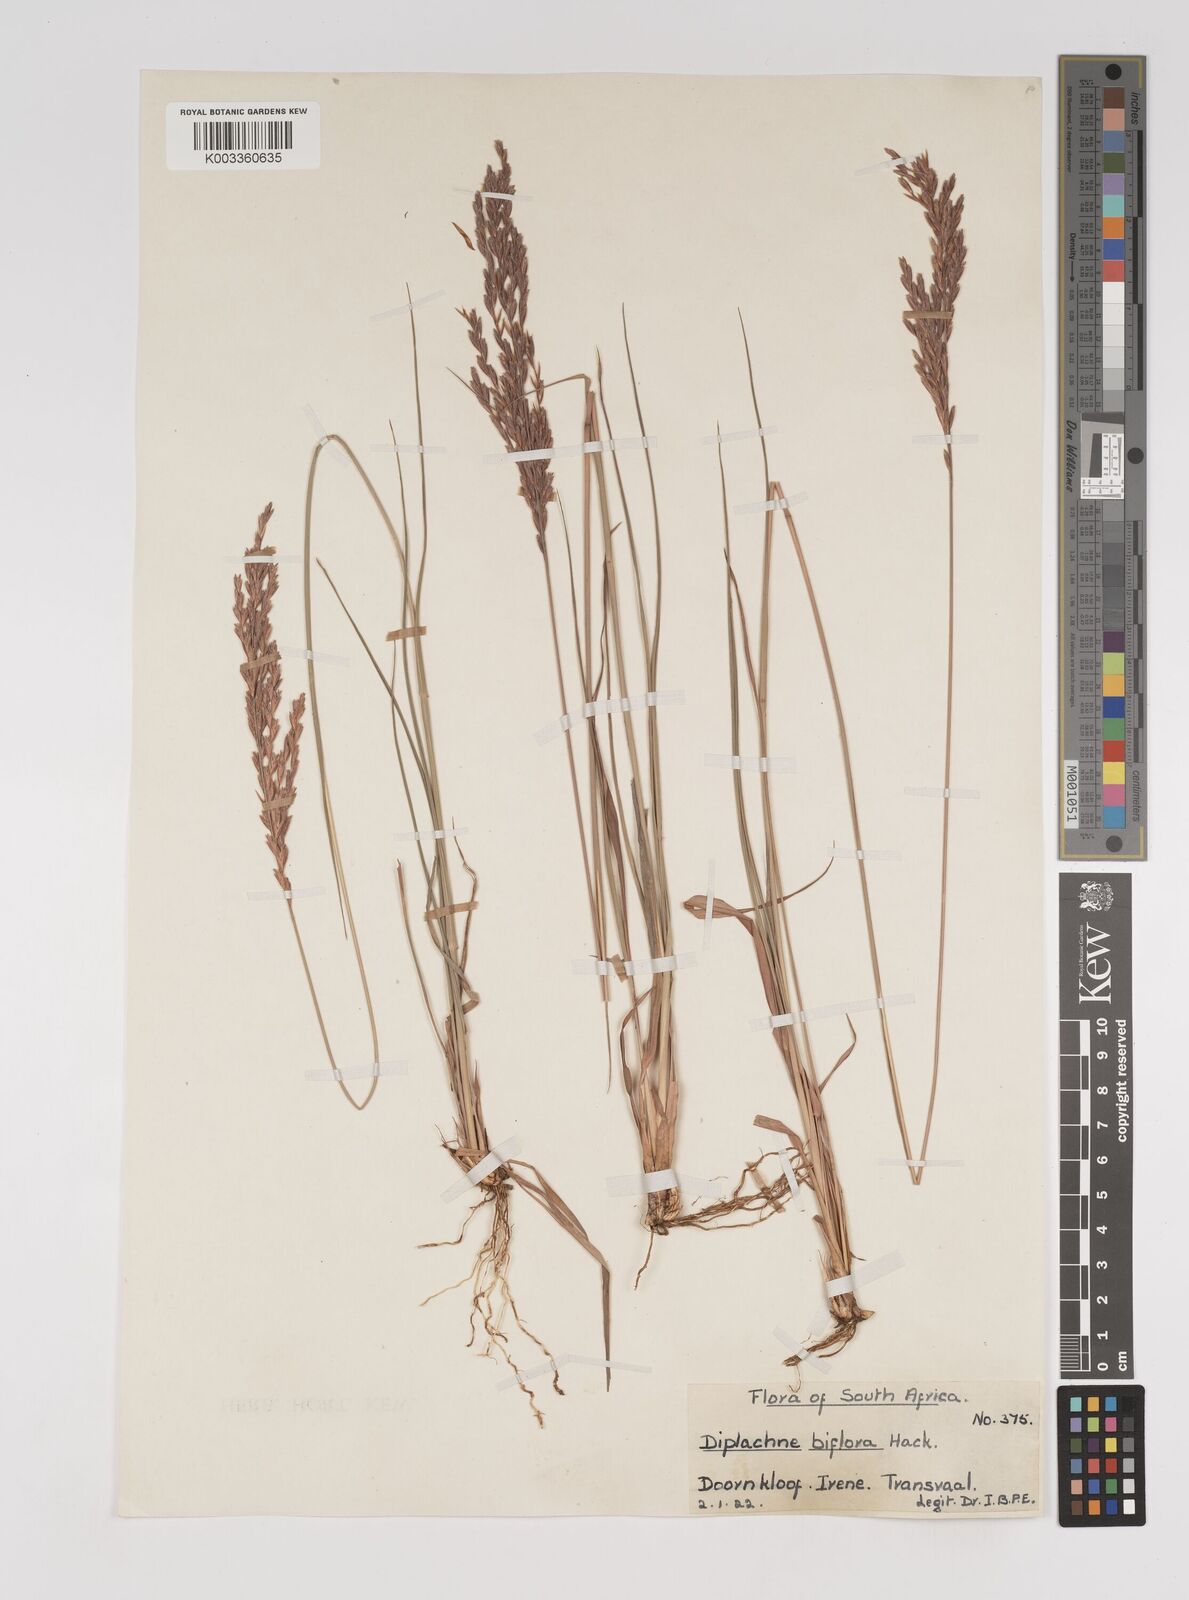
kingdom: Plantae
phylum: Tracheophyta
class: Liliopsida
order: Poales
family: Poaceae
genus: Bewsia
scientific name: Bewsia biflora
